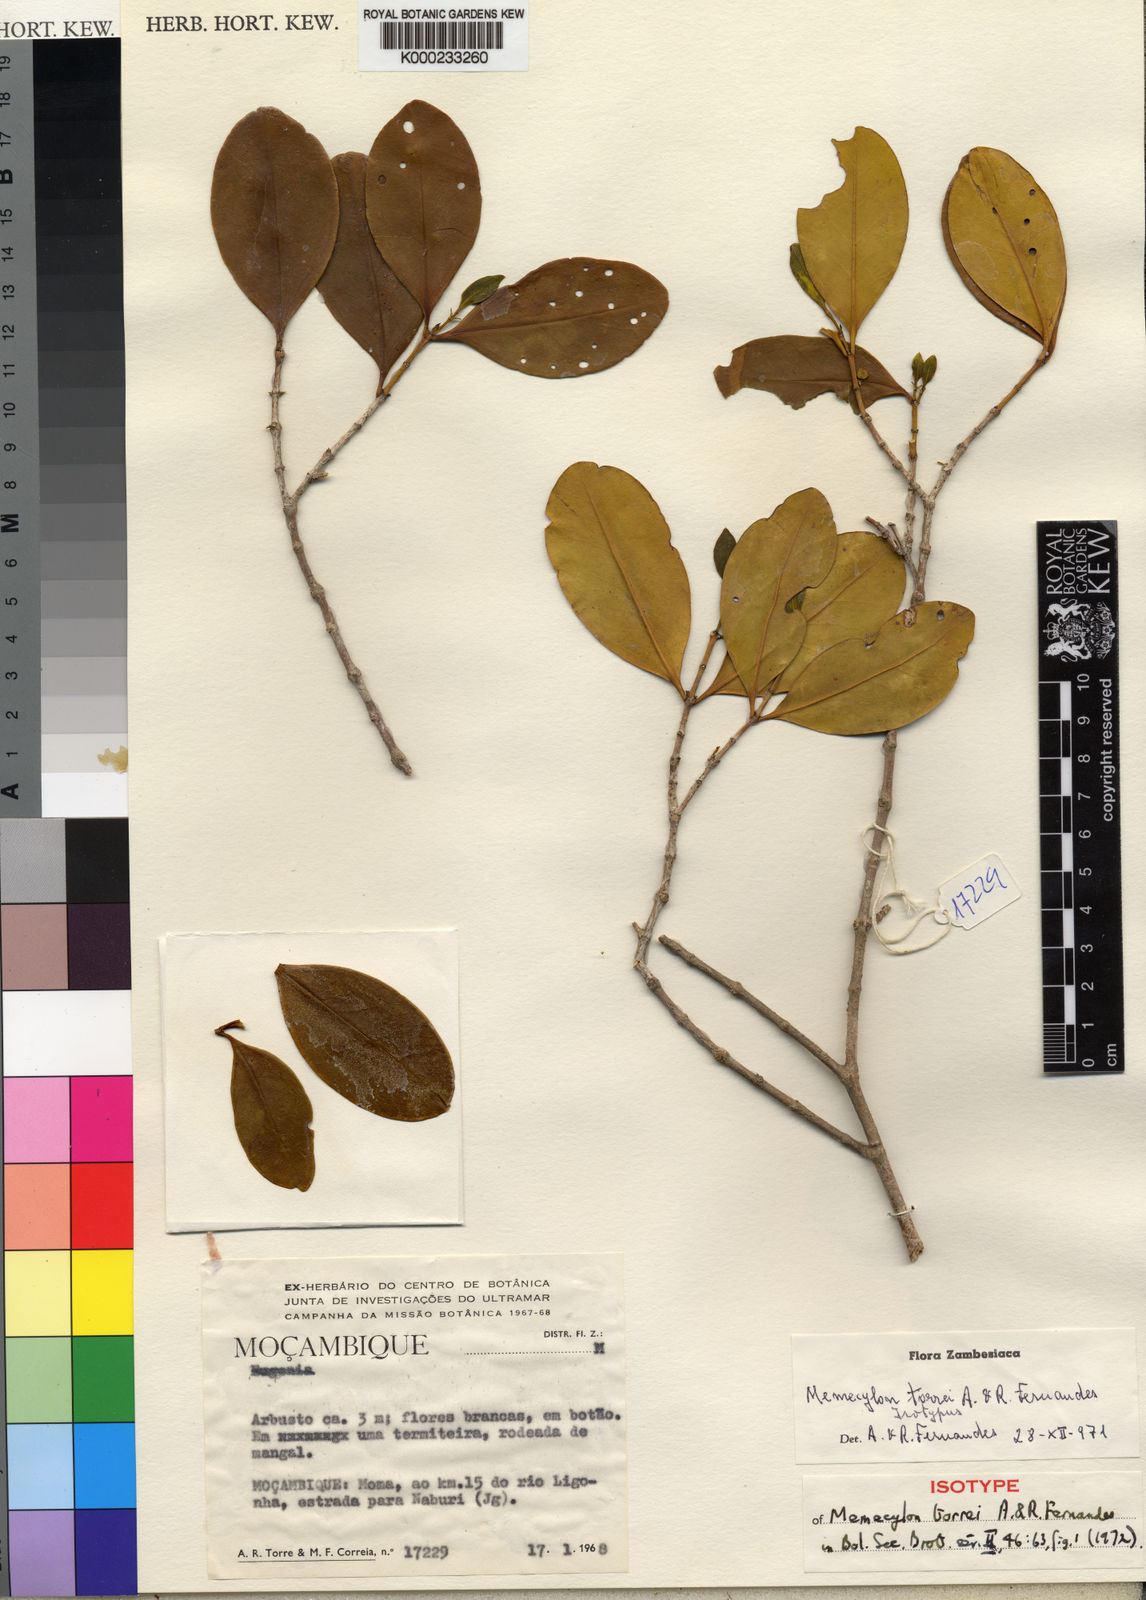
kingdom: Plantae
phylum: Tracheophyta
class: Magnoliopsida
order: Myrtales
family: Melastomataceae
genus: Memecylon
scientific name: Memecylon torrei
